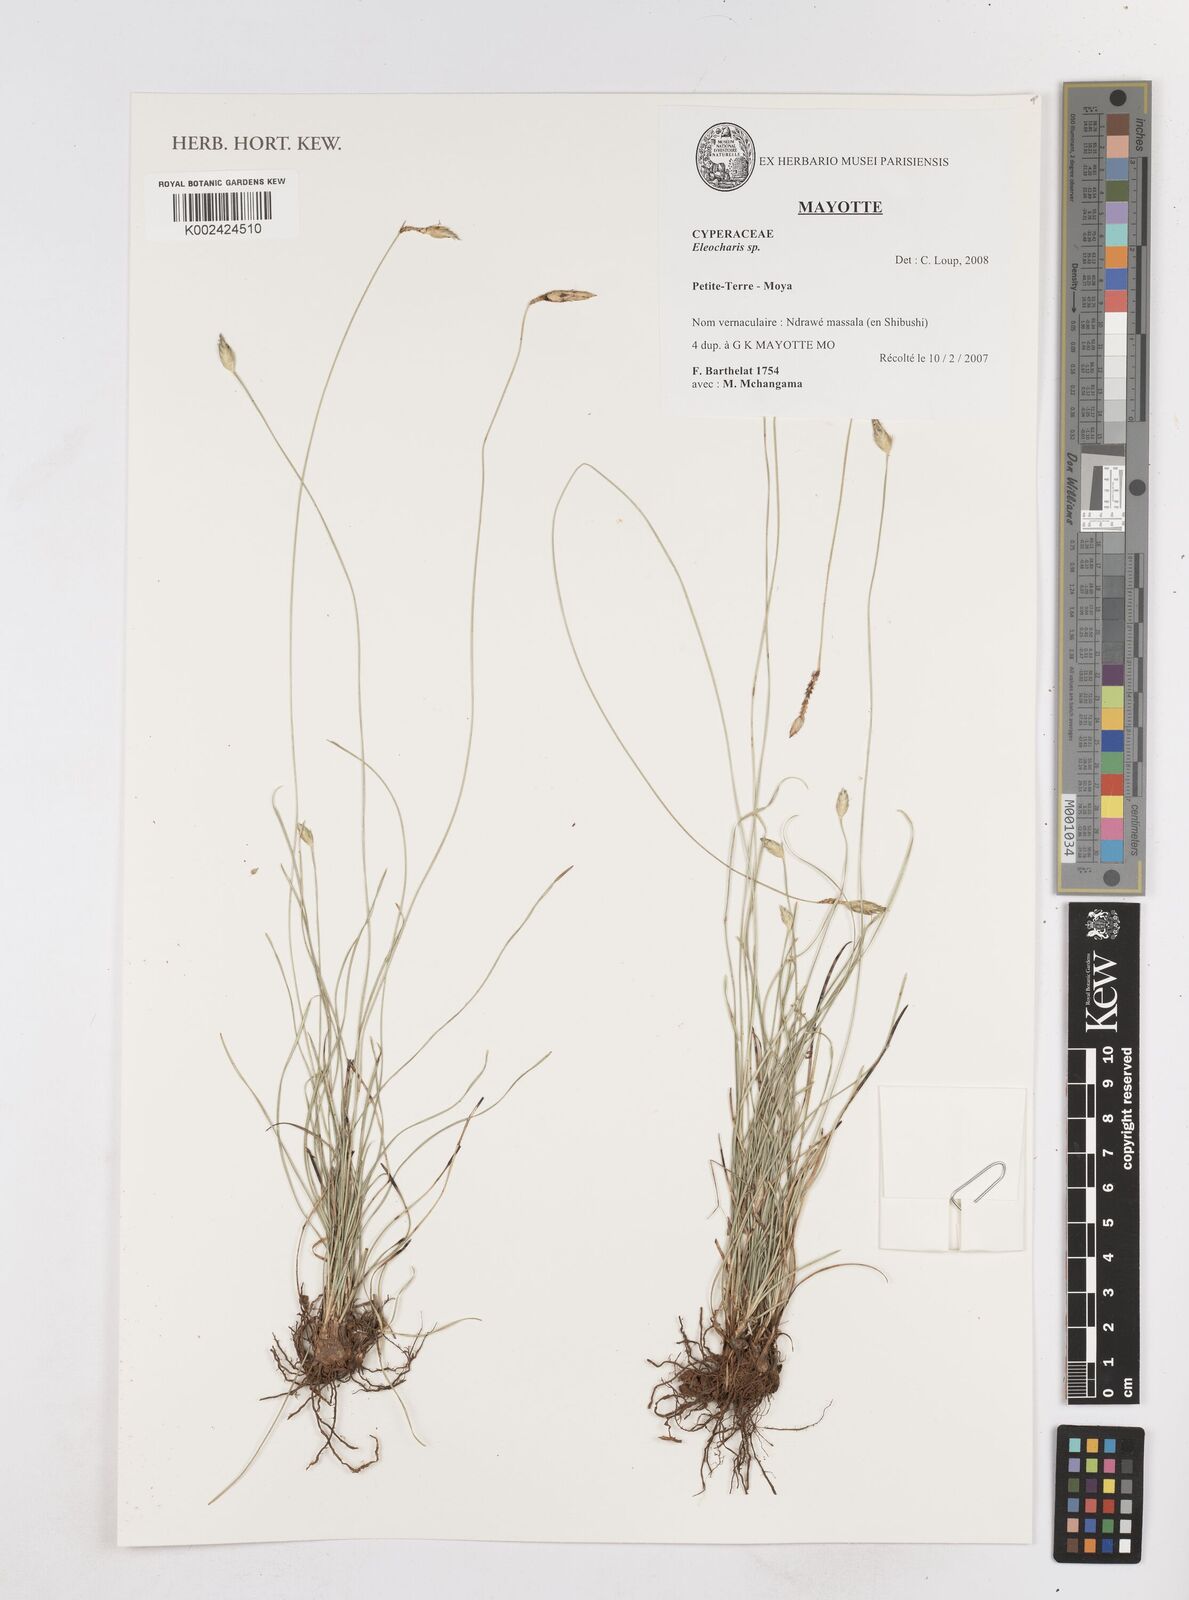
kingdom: Plantae
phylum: Tracheophyta
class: Liliopsida
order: Poales
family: Cyperaceae
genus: Eleocharis
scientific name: Eleocharis
